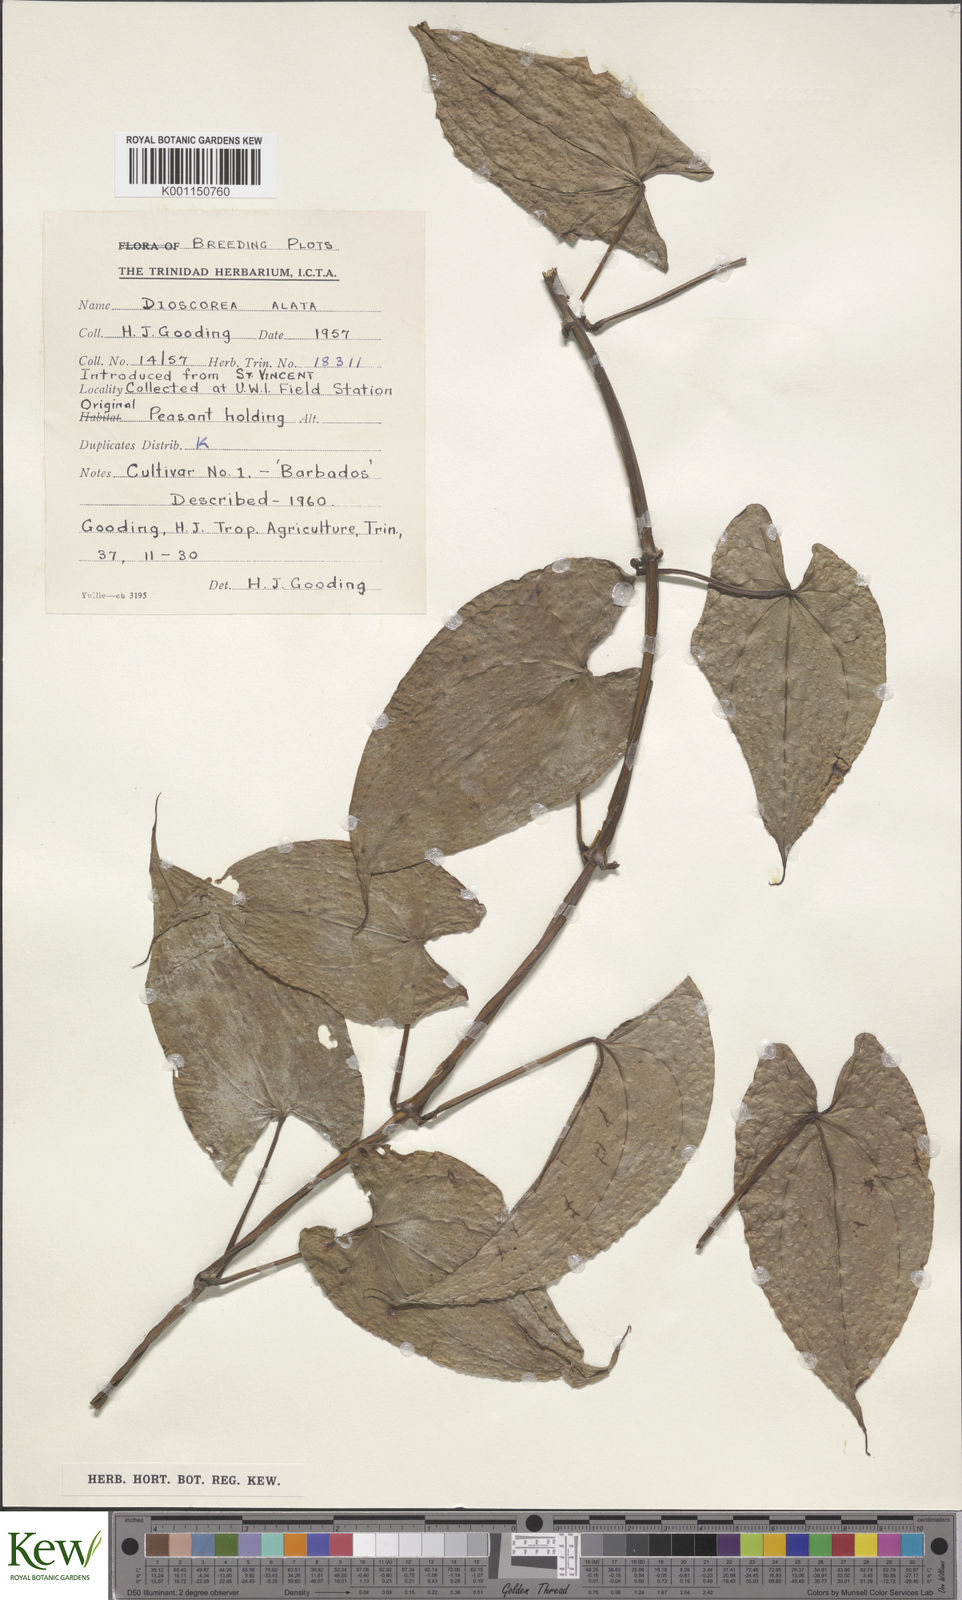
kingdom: Plantae
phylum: Tracheophyta
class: Liliopsida
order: Dioscoreales
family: Dioscoreaceae
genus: Dioscorea
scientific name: Dioscorea alata
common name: Water yam
